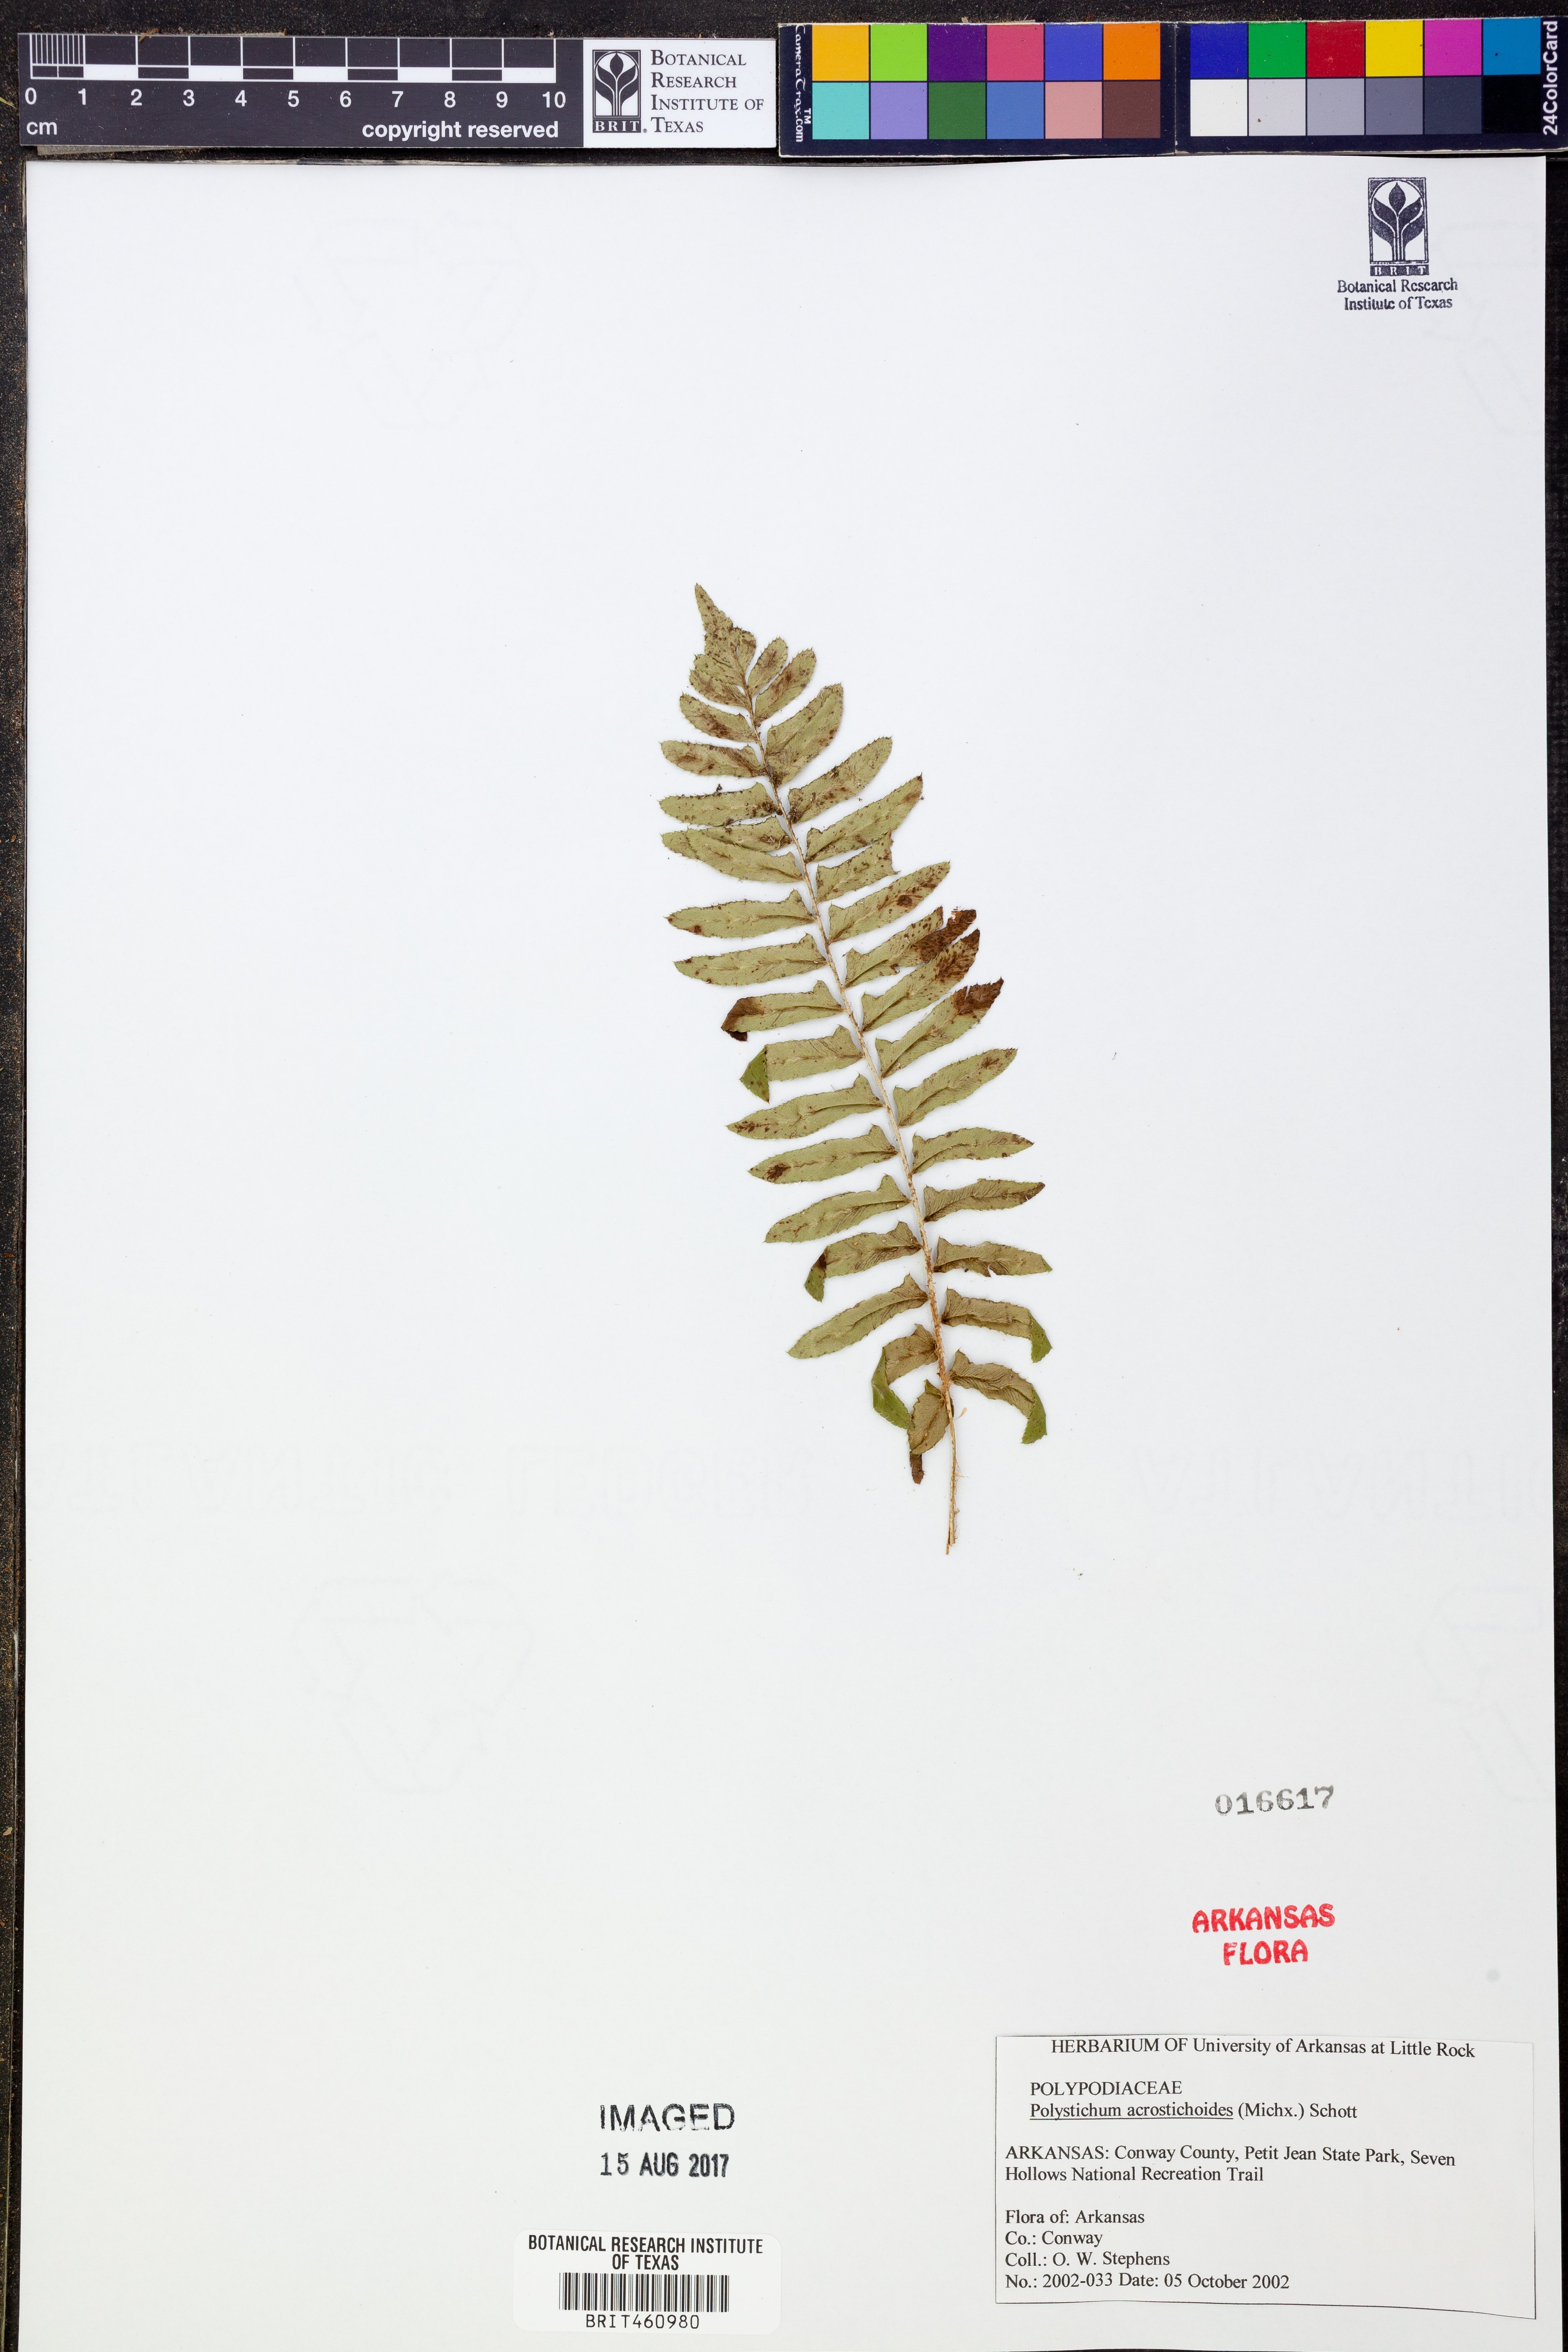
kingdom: Plantae
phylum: Tracheophyta
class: Polypodiopsida
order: Polypodiales
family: Dryopteridaceae
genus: Polystichum
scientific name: Polystichum acrostichoides
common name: Christmas fern
